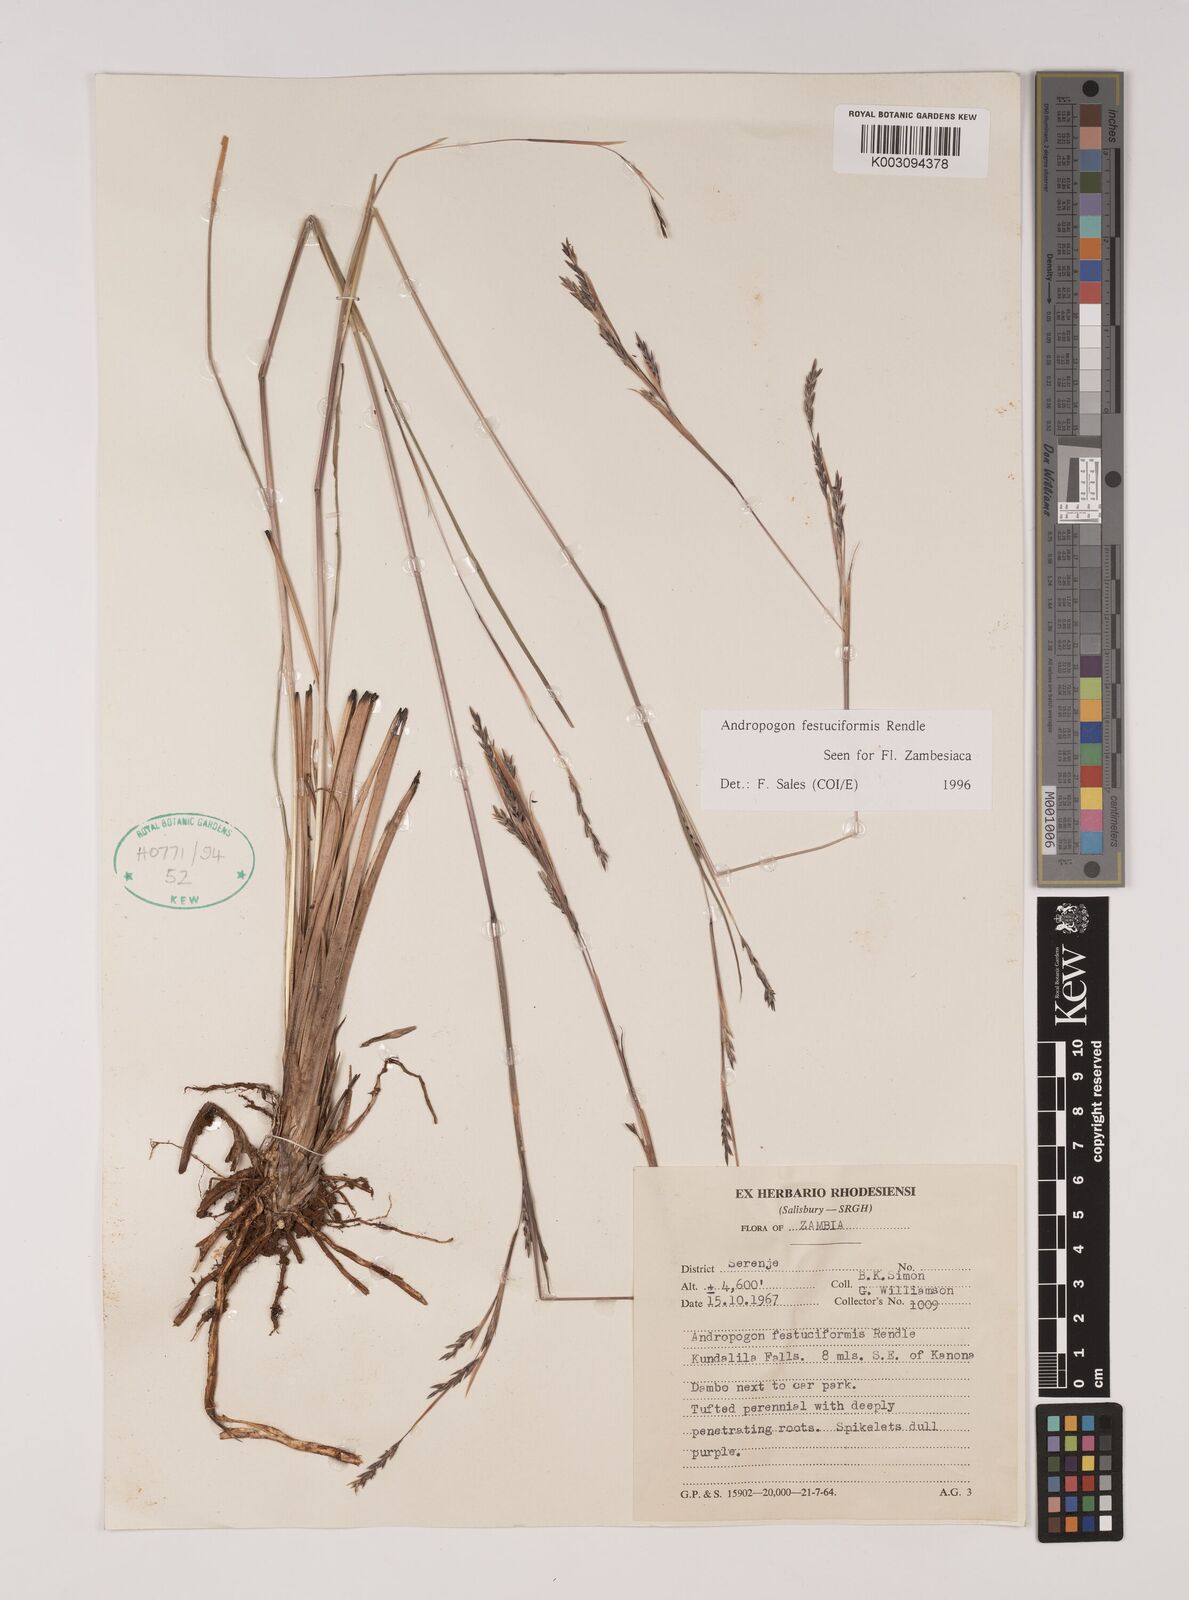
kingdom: Plantae
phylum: Tracheophyta
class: Liliopsida
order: Poales
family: Poaceae
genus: Andropogon
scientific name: Andropogon festuciformis
